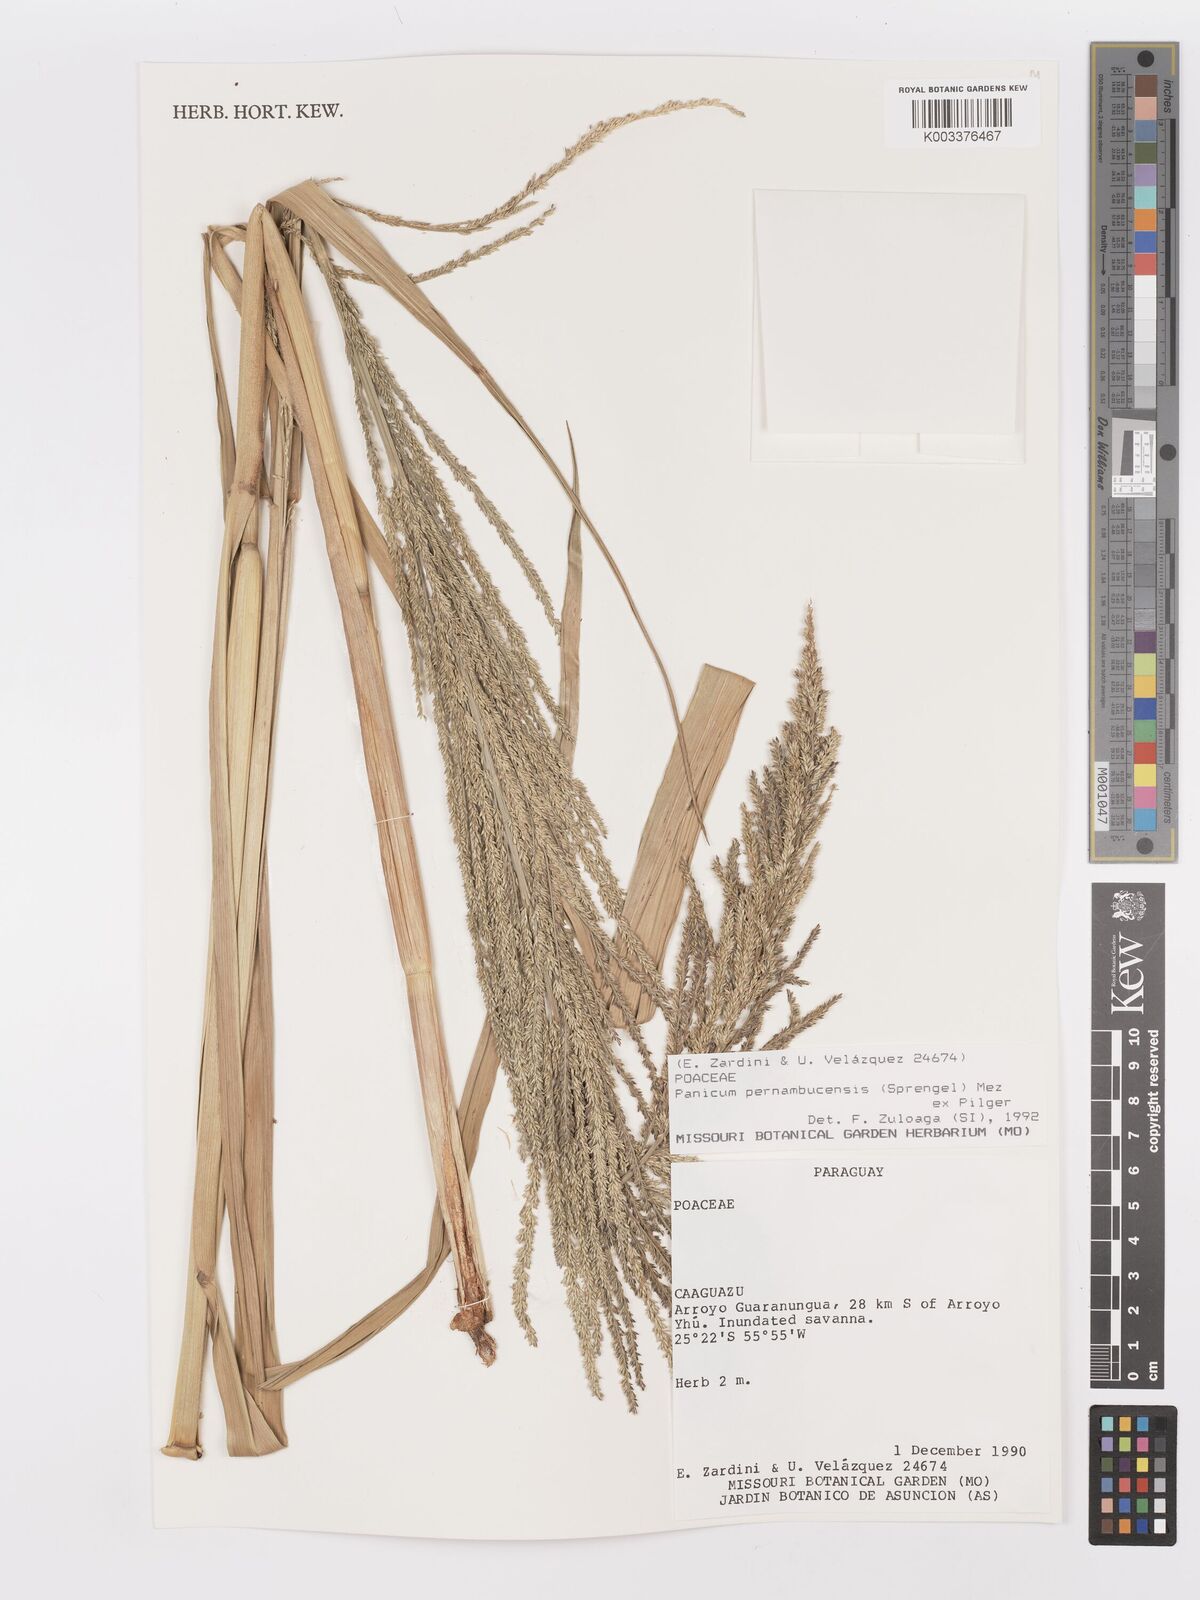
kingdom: Plantae
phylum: Tracheophyta
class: Liliopsida
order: Poales
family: Poaceae
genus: Hymenachne
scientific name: Hymenachne pernambucensis
